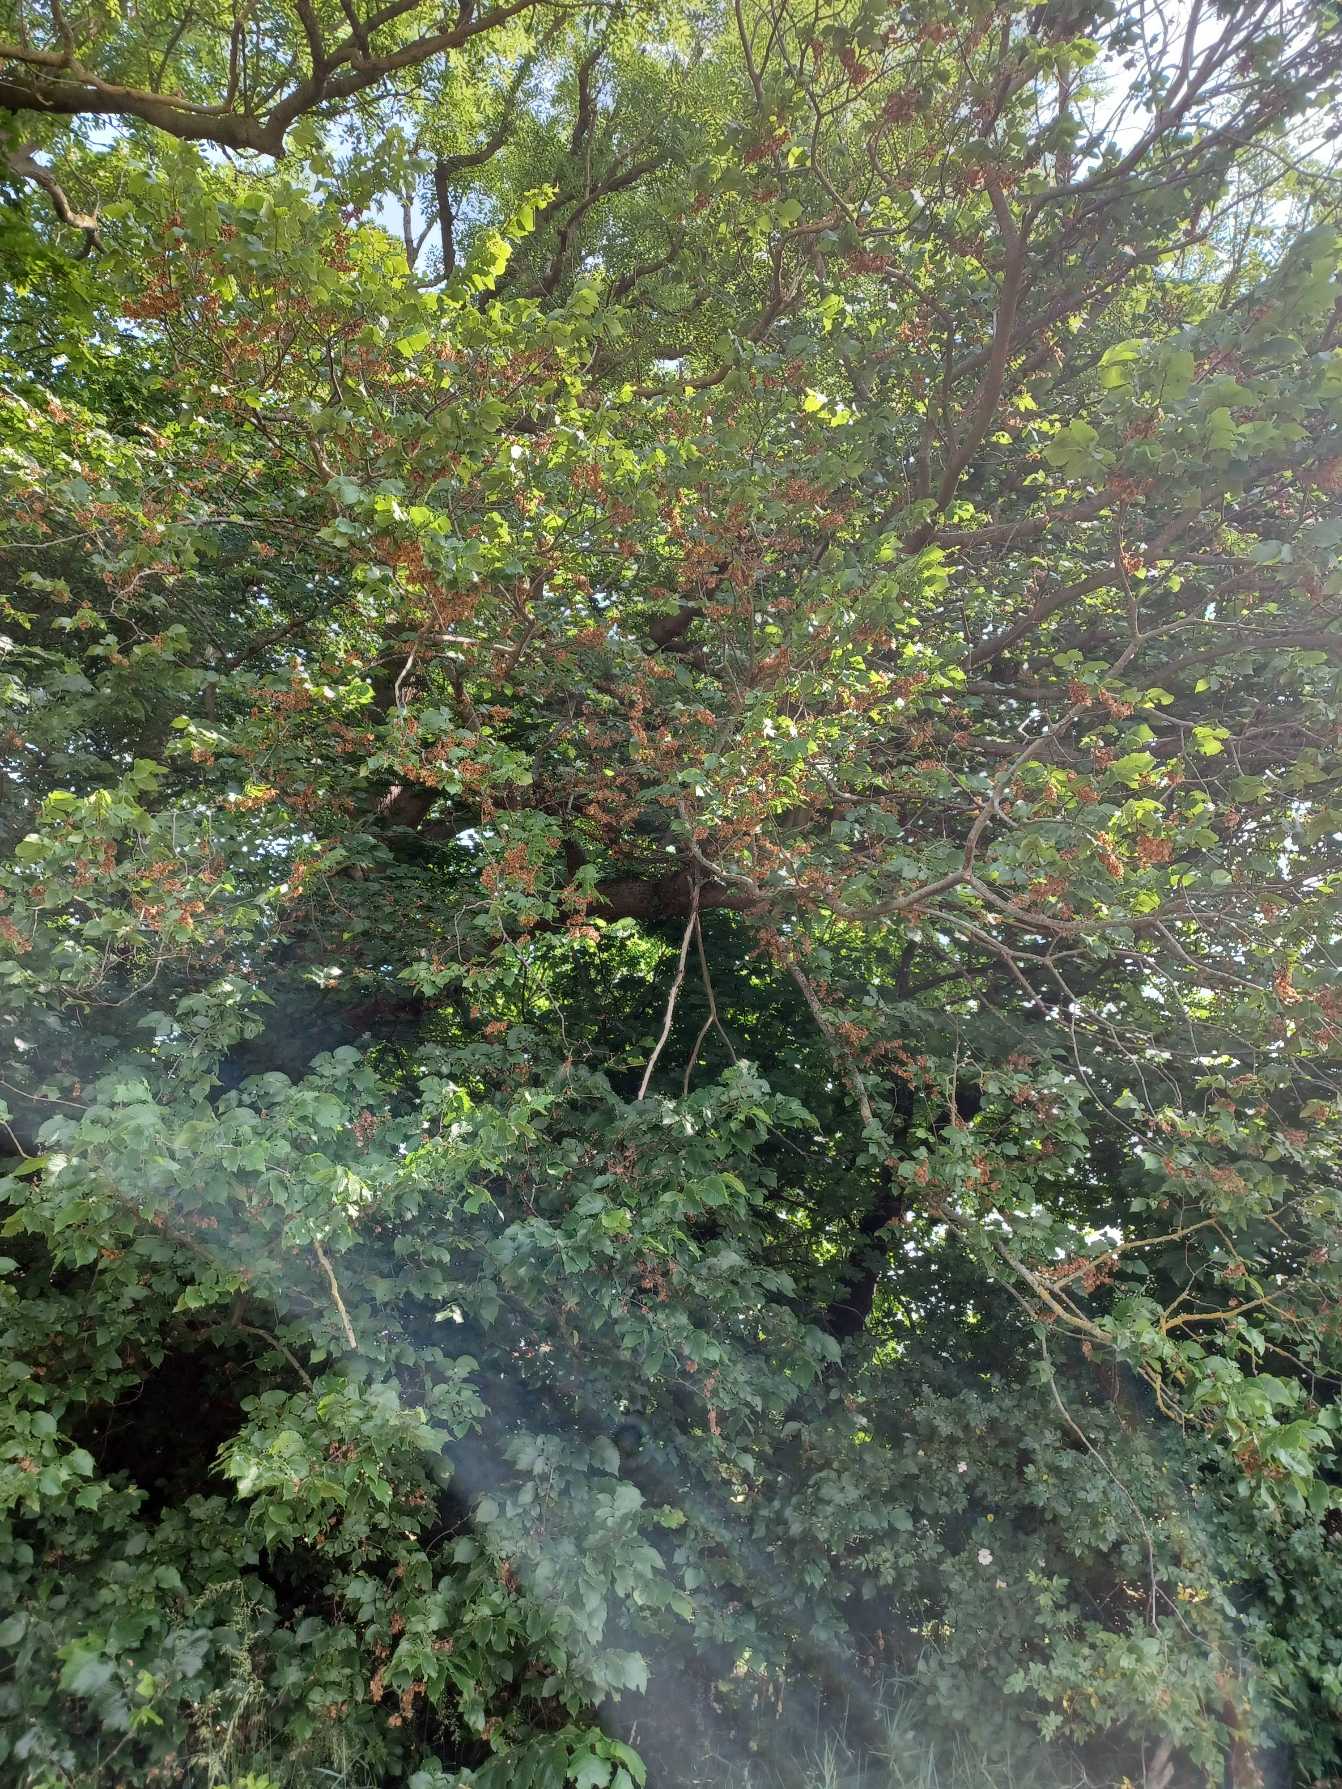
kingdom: Plantae
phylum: Tracheophyta
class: Magnoliopsida
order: Rosales
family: Ulmaceae
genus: Ulmus
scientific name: Ulmus laevis
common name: Skærm-elm
